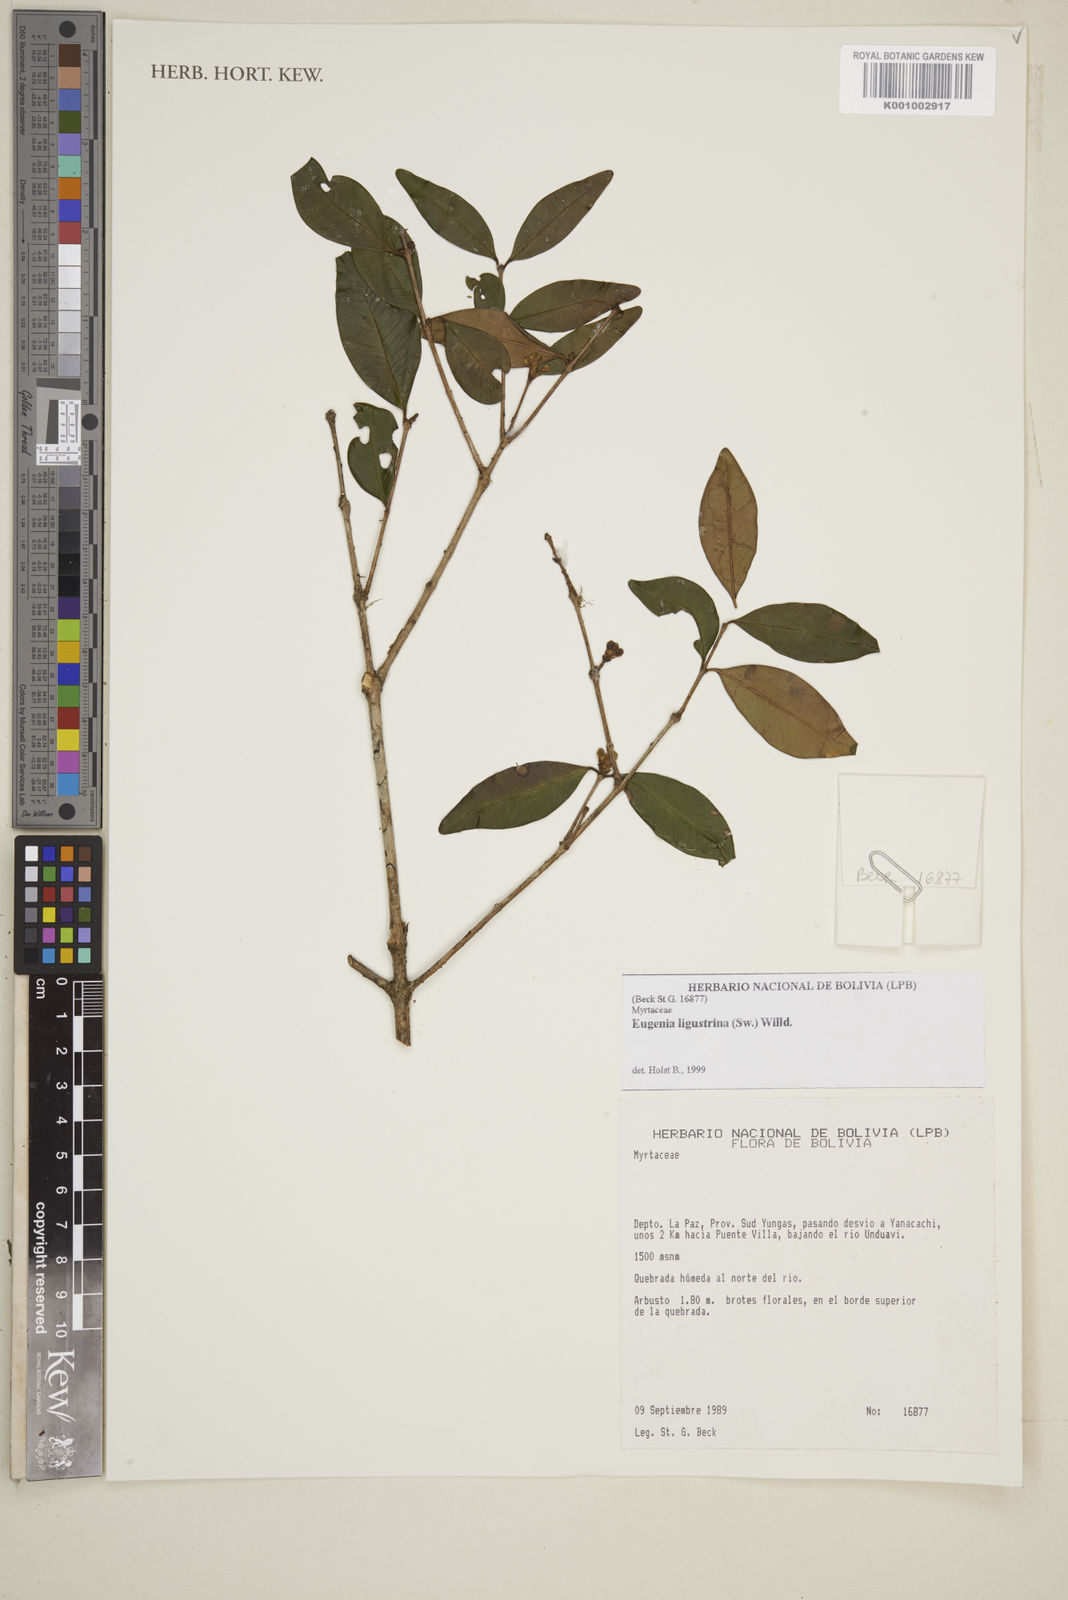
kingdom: Plantae
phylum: Tracheophyta
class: Magnoliopsida
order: Myrtales
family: Myrtaceae
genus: Eugenia
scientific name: Eugenia ligustrina
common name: Privet stopper
